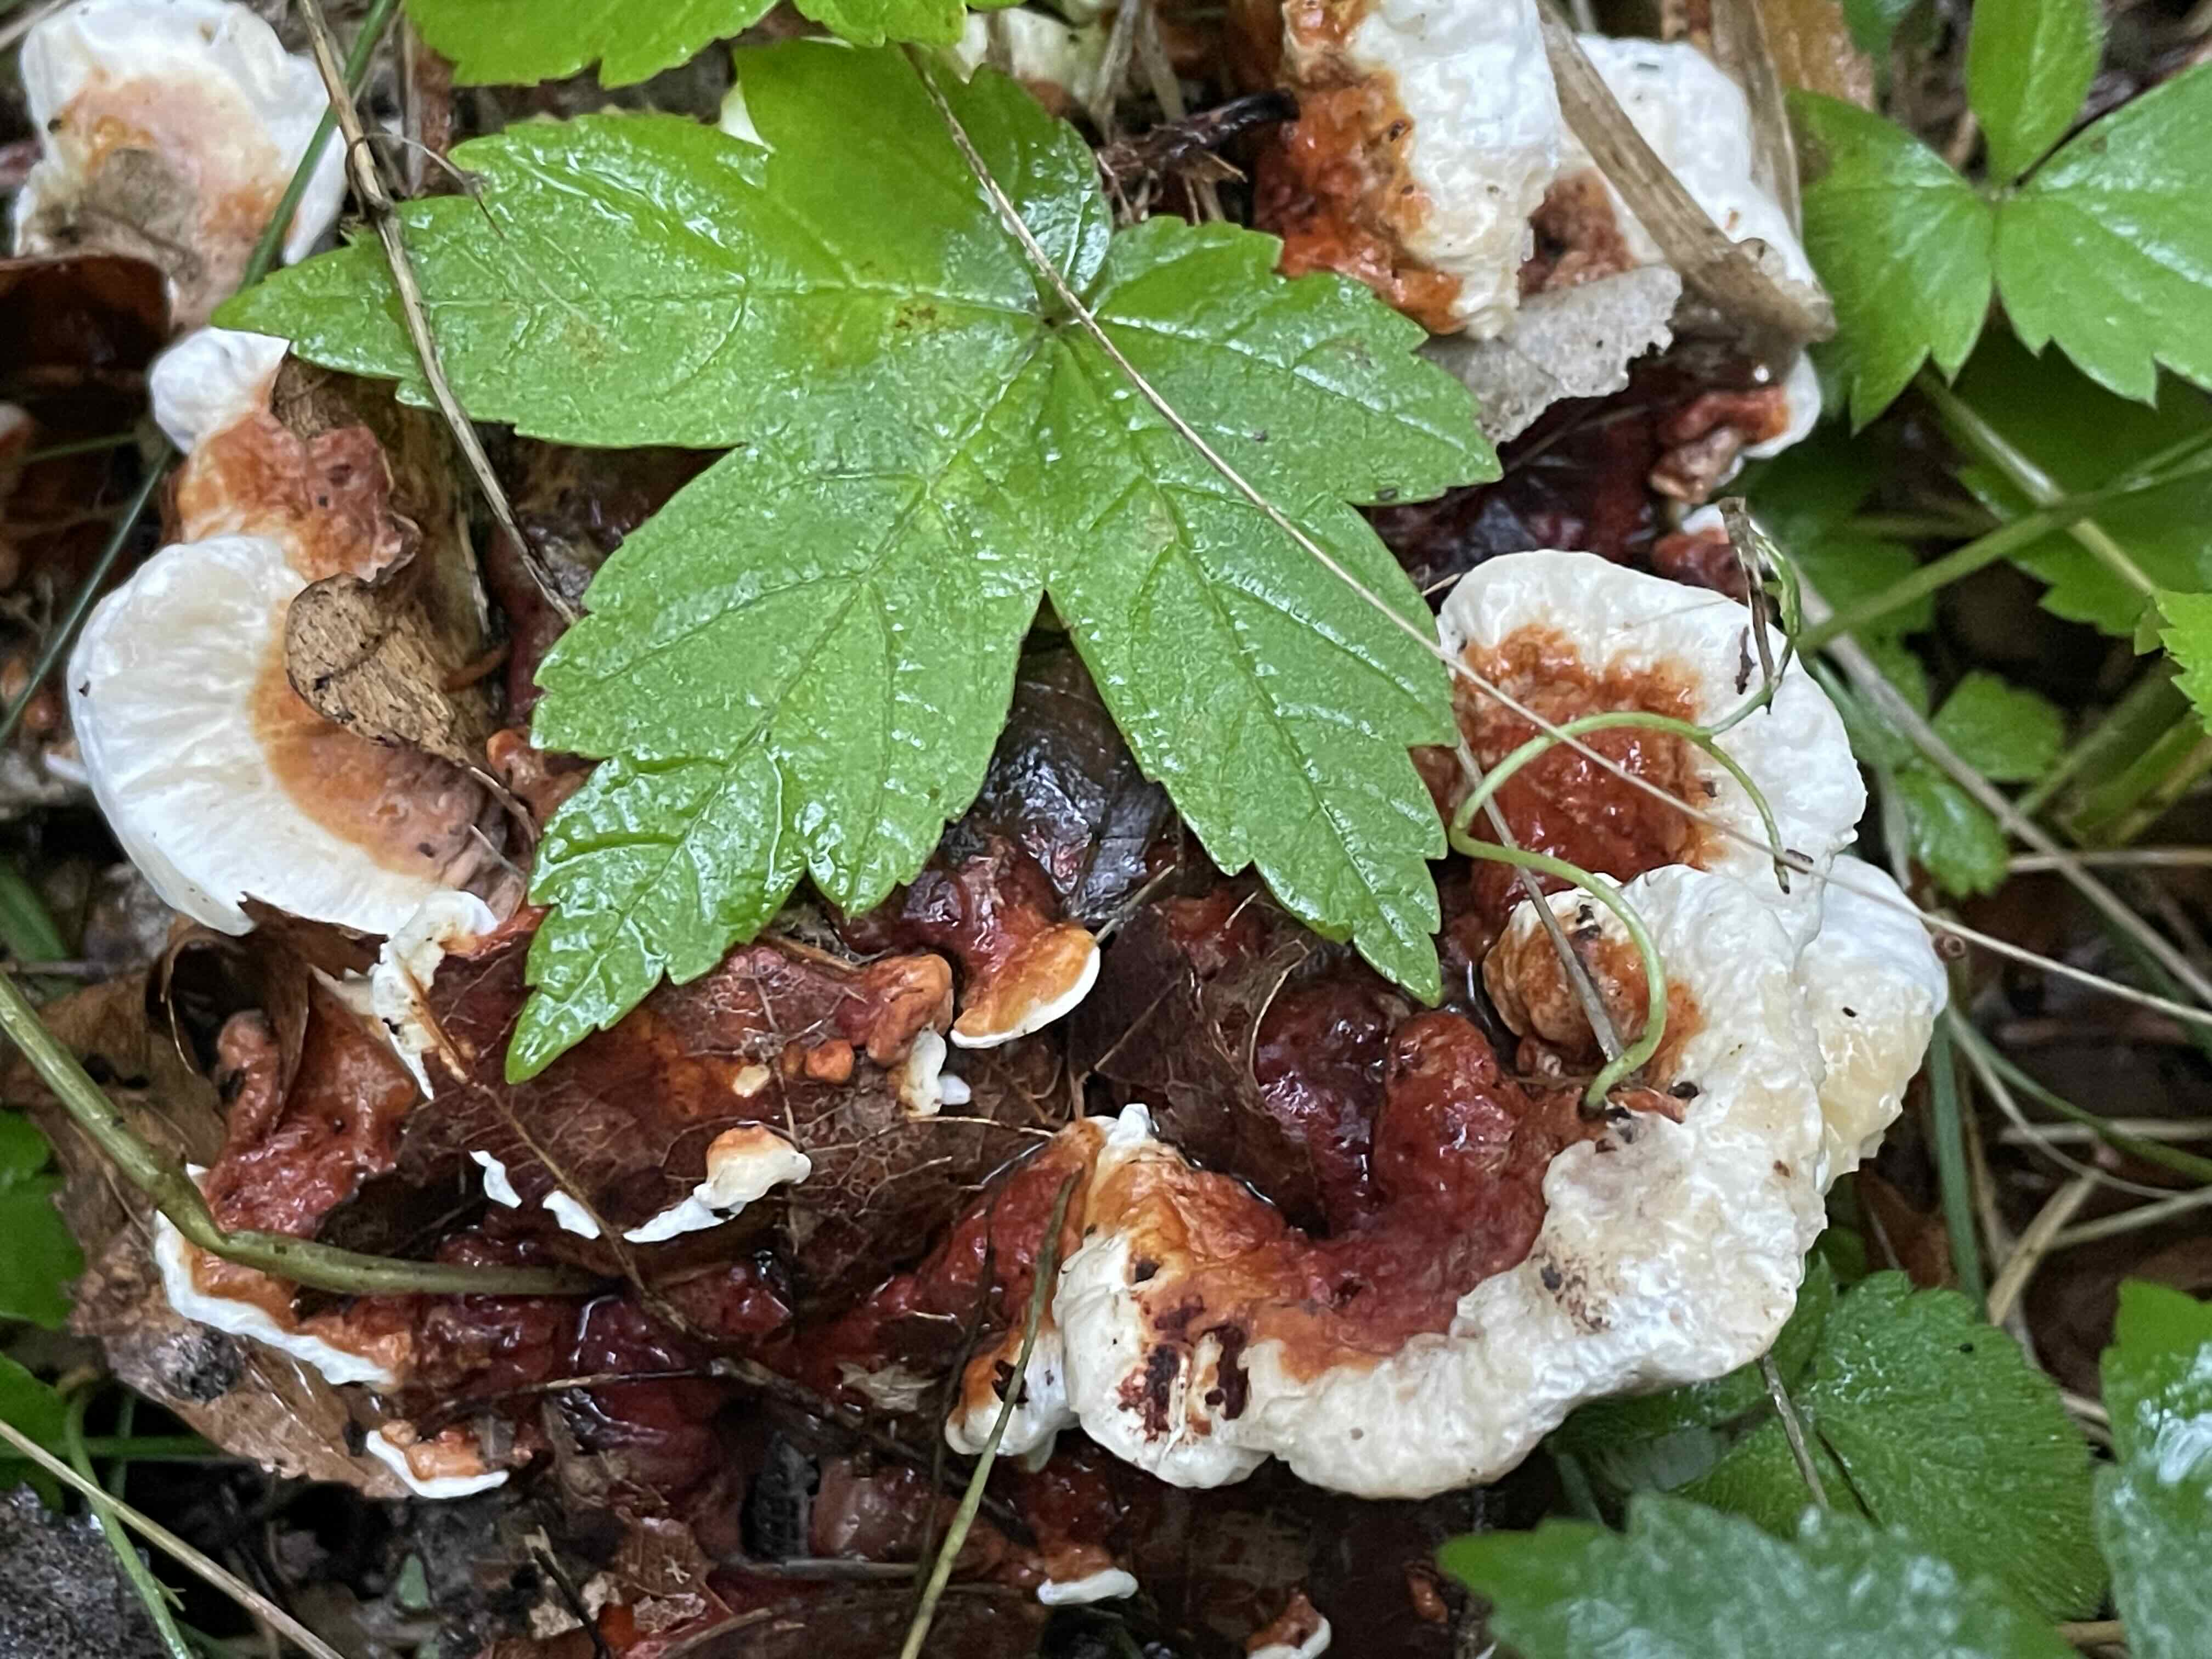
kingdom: Fungi
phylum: Basidiomycota
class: Agaricomycetes
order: Russulales
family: Bondarzewiaceae
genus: Heterobasidion
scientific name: Heterobasidion annosum
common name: almindelig rodfordærver
